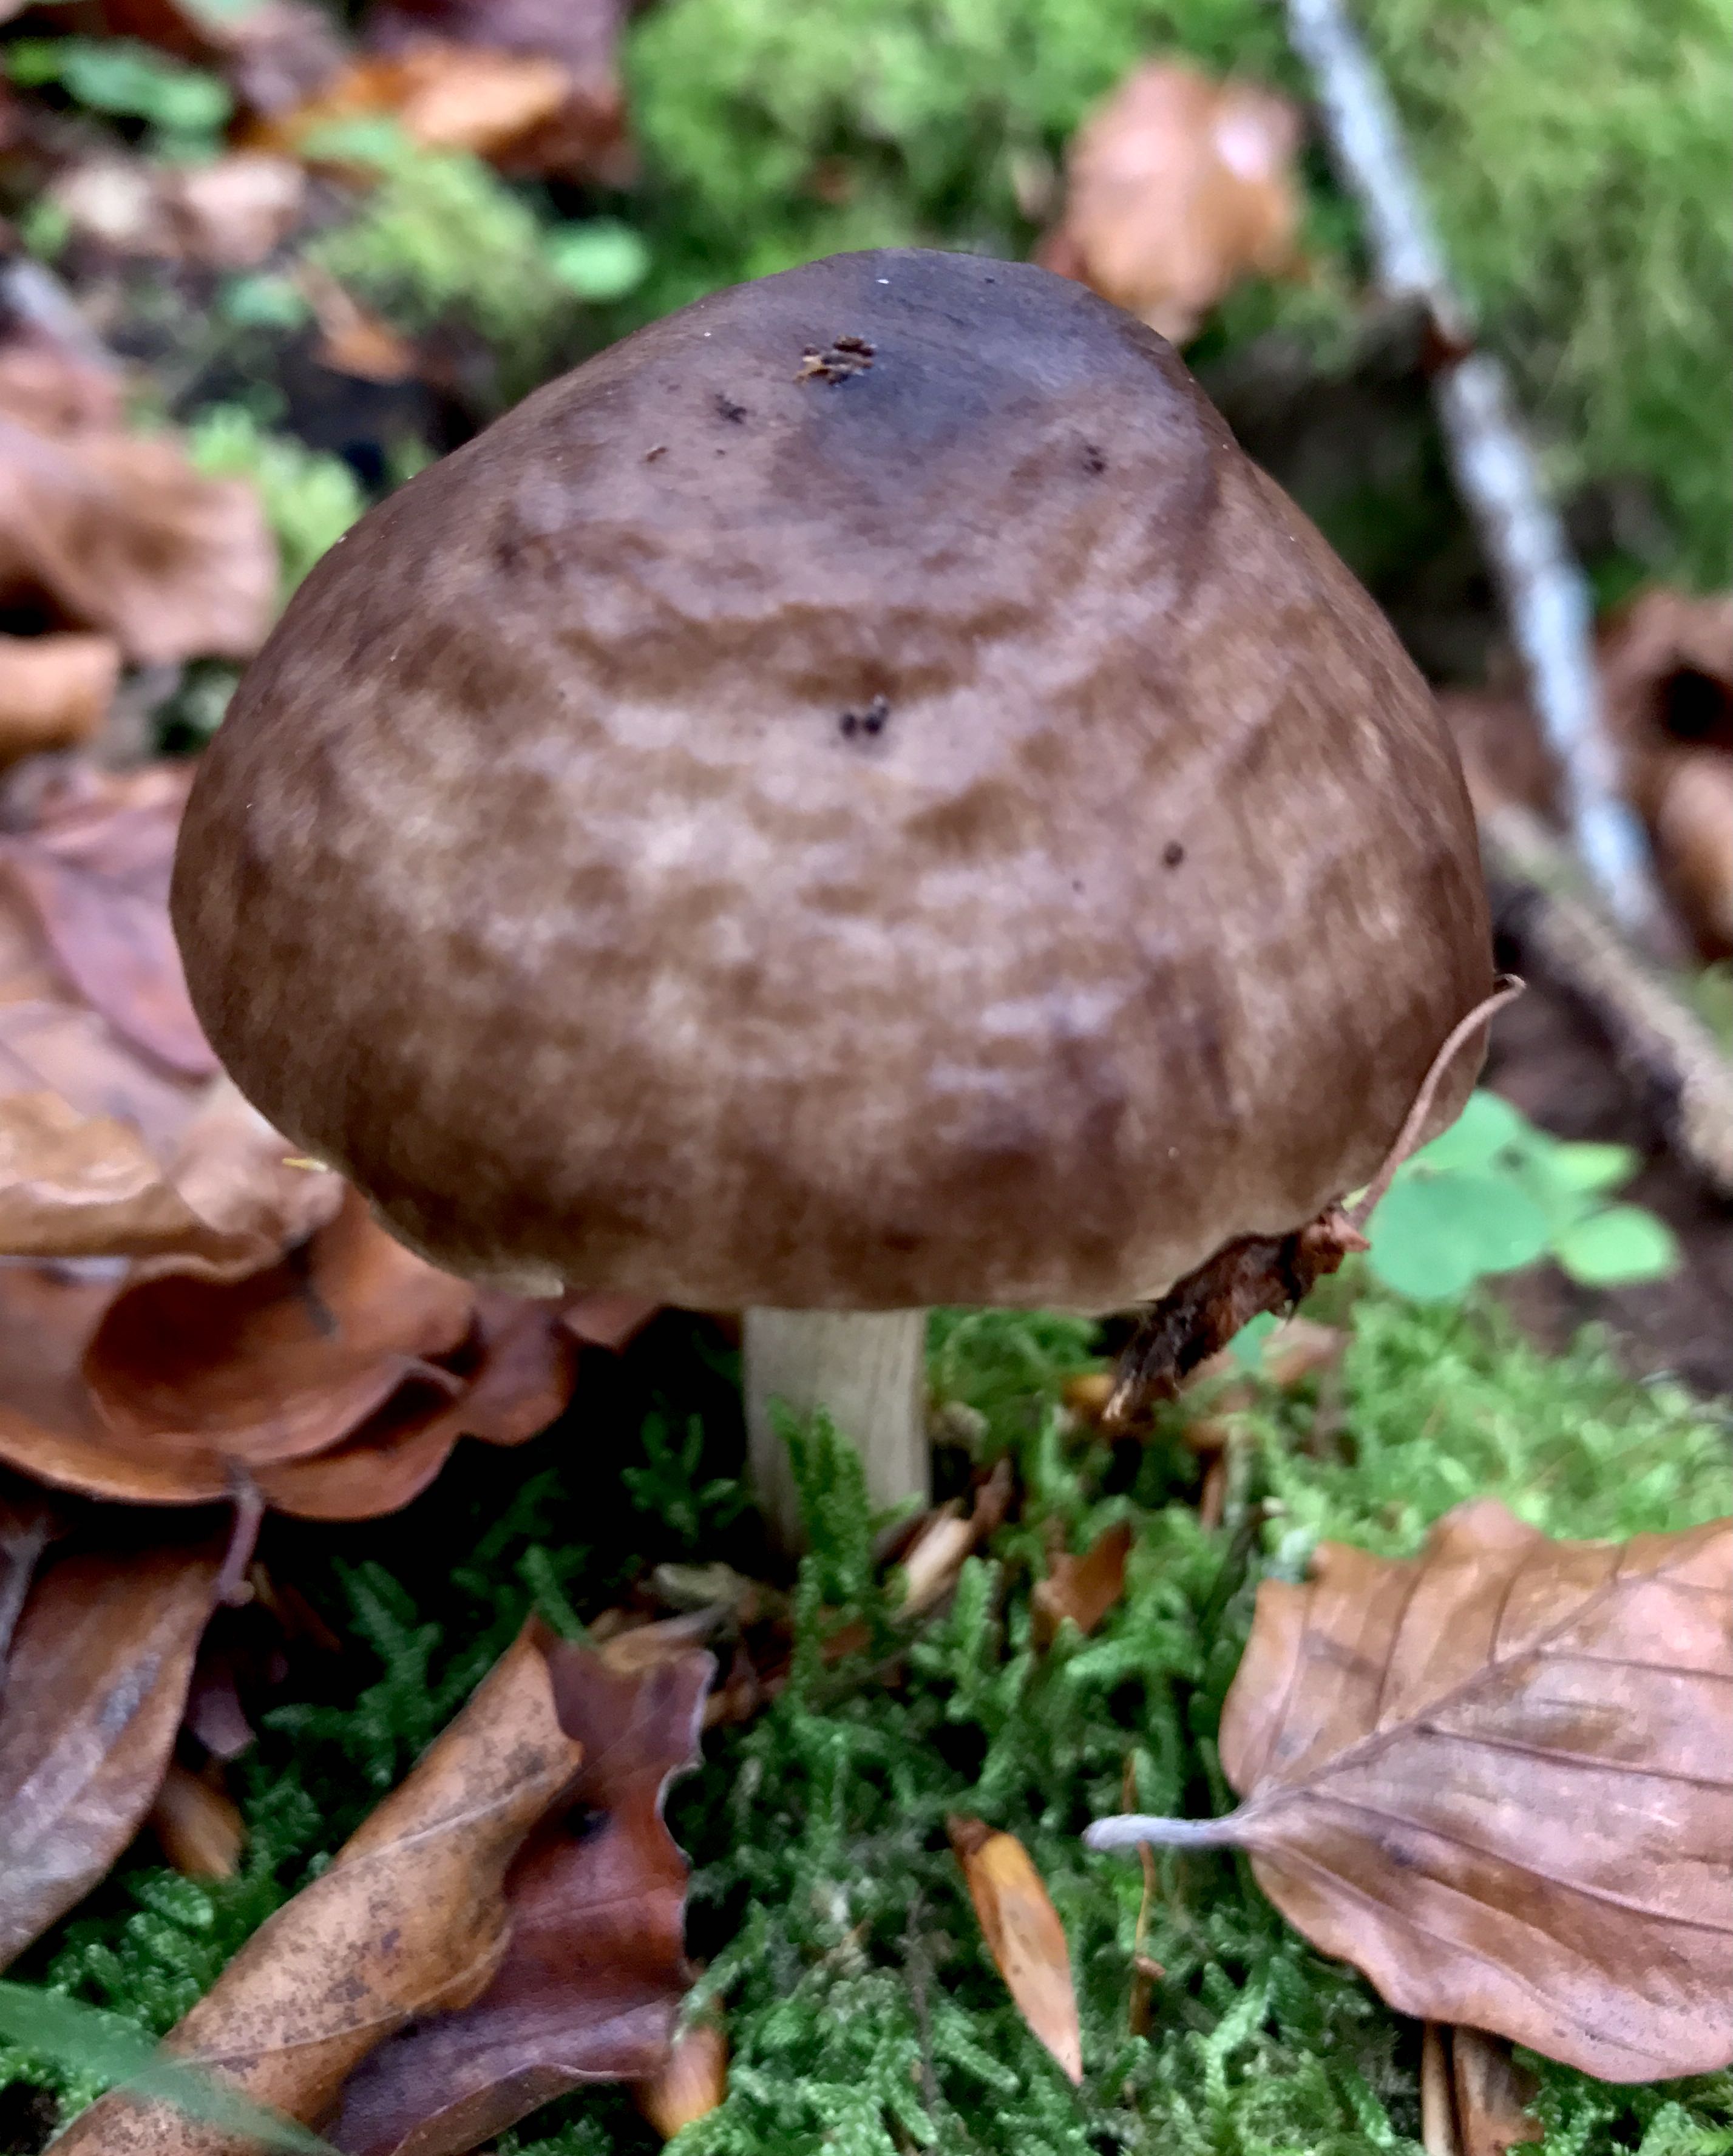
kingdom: Fungi
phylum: Basidiomycota
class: Agaricomycetes
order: Agaricales
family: Pluteaceae
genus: Pluteus
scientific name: Pluteus cervinus
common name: sodfarvet skærmhat
